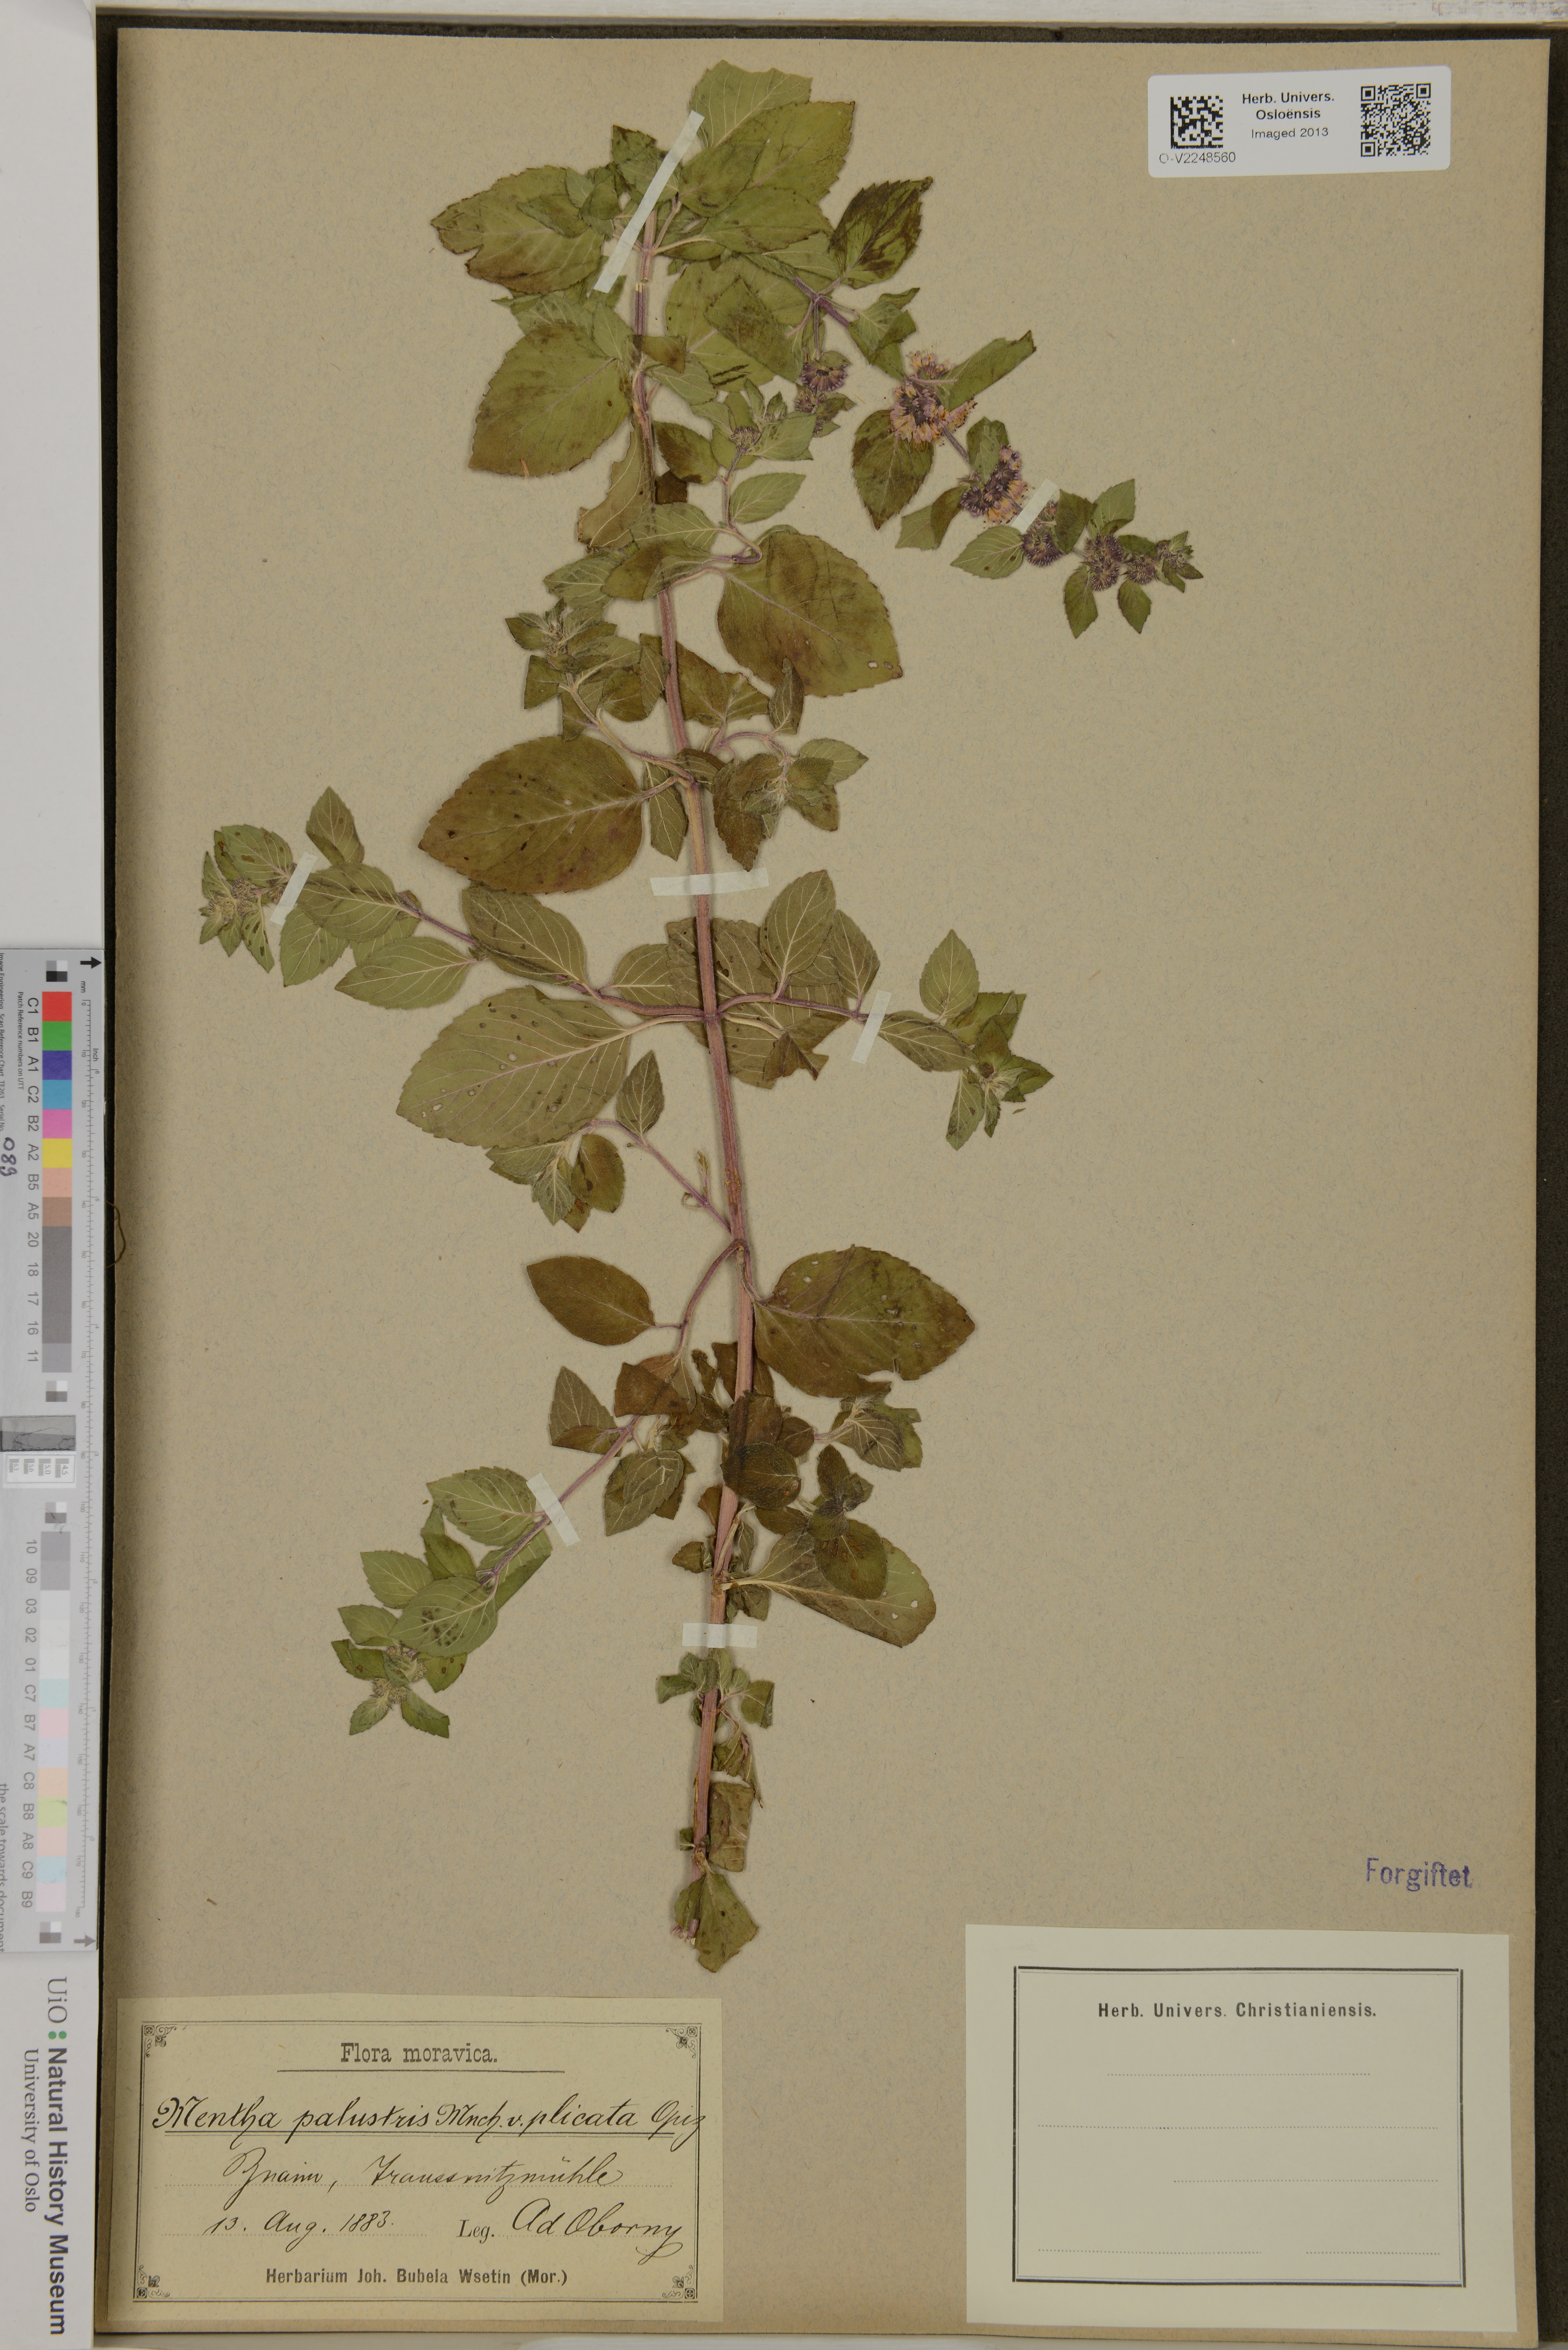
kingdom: Plantae
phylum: Tracheophyta
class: Magnoliopsida
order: Lamiales
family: Lamiaceae
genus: Mentha
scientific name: Mentha
